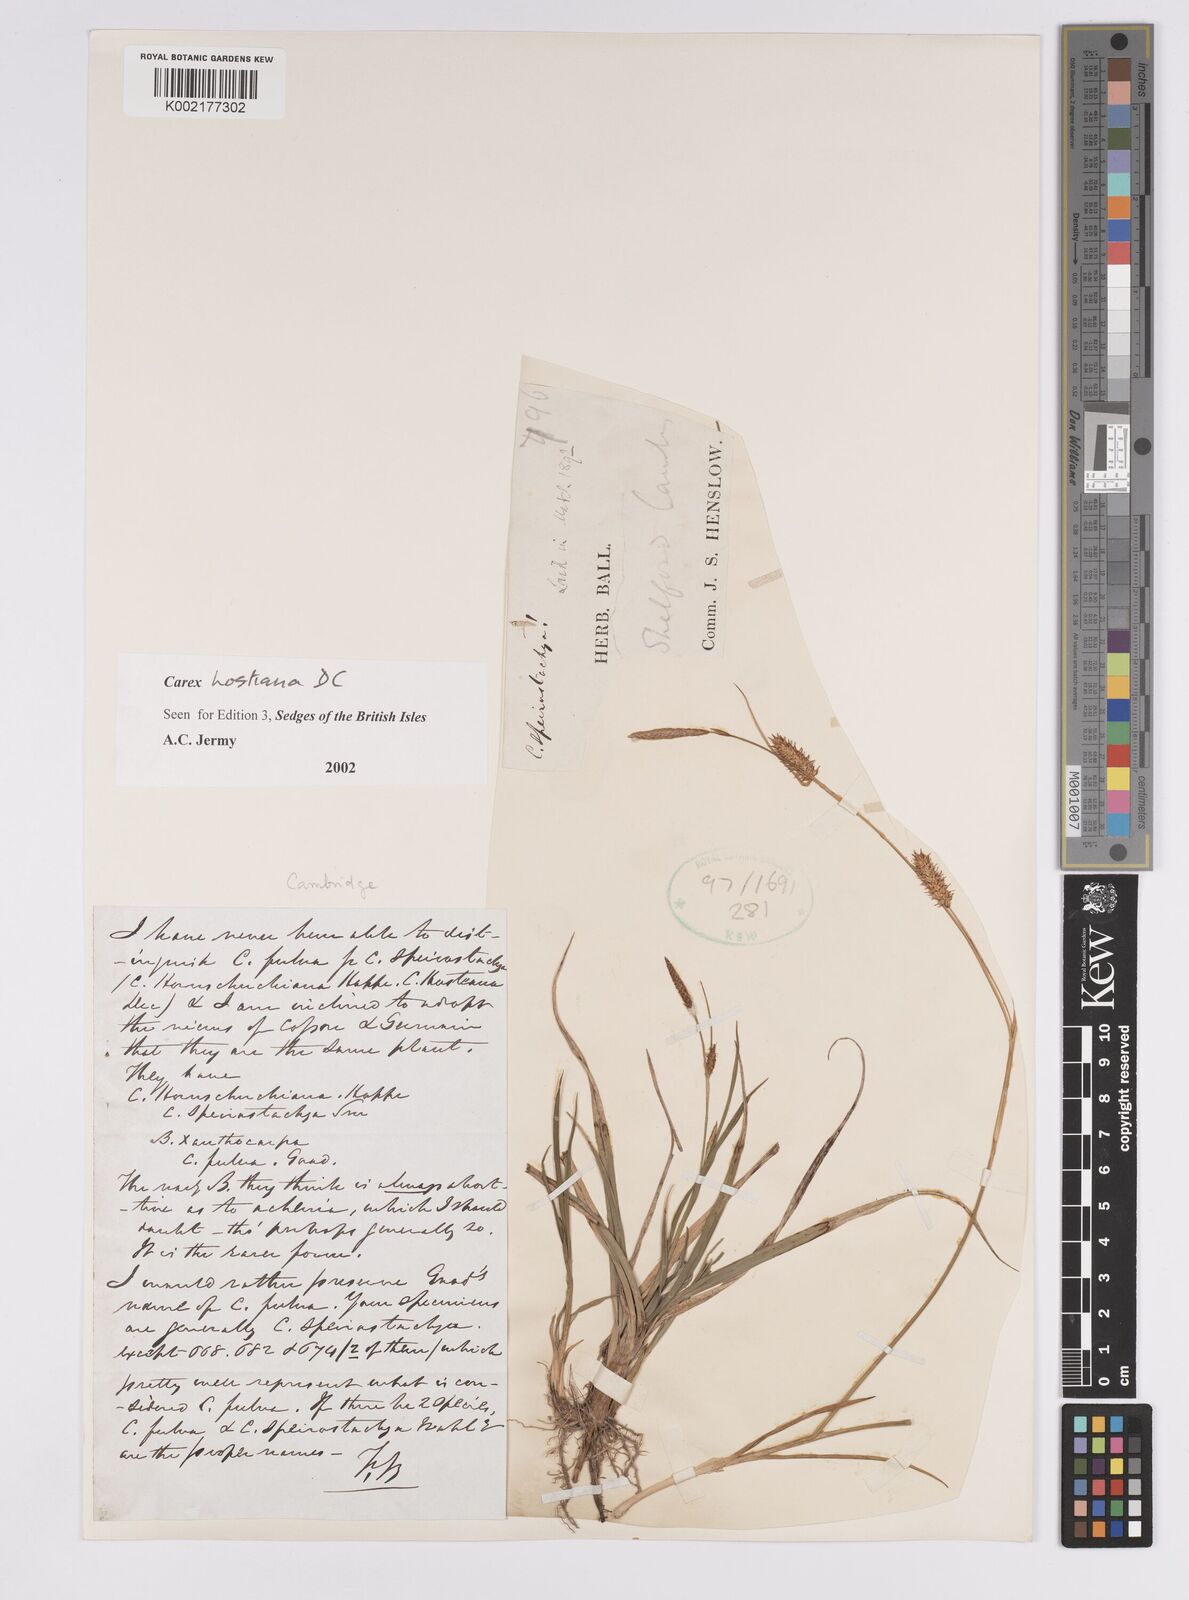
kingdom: Plantae
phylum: Tracheophyta
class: Liliopsida
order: Poales
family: Cyperaceae
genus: Carex
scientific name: Carex hostiana
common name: Tawny sedge
